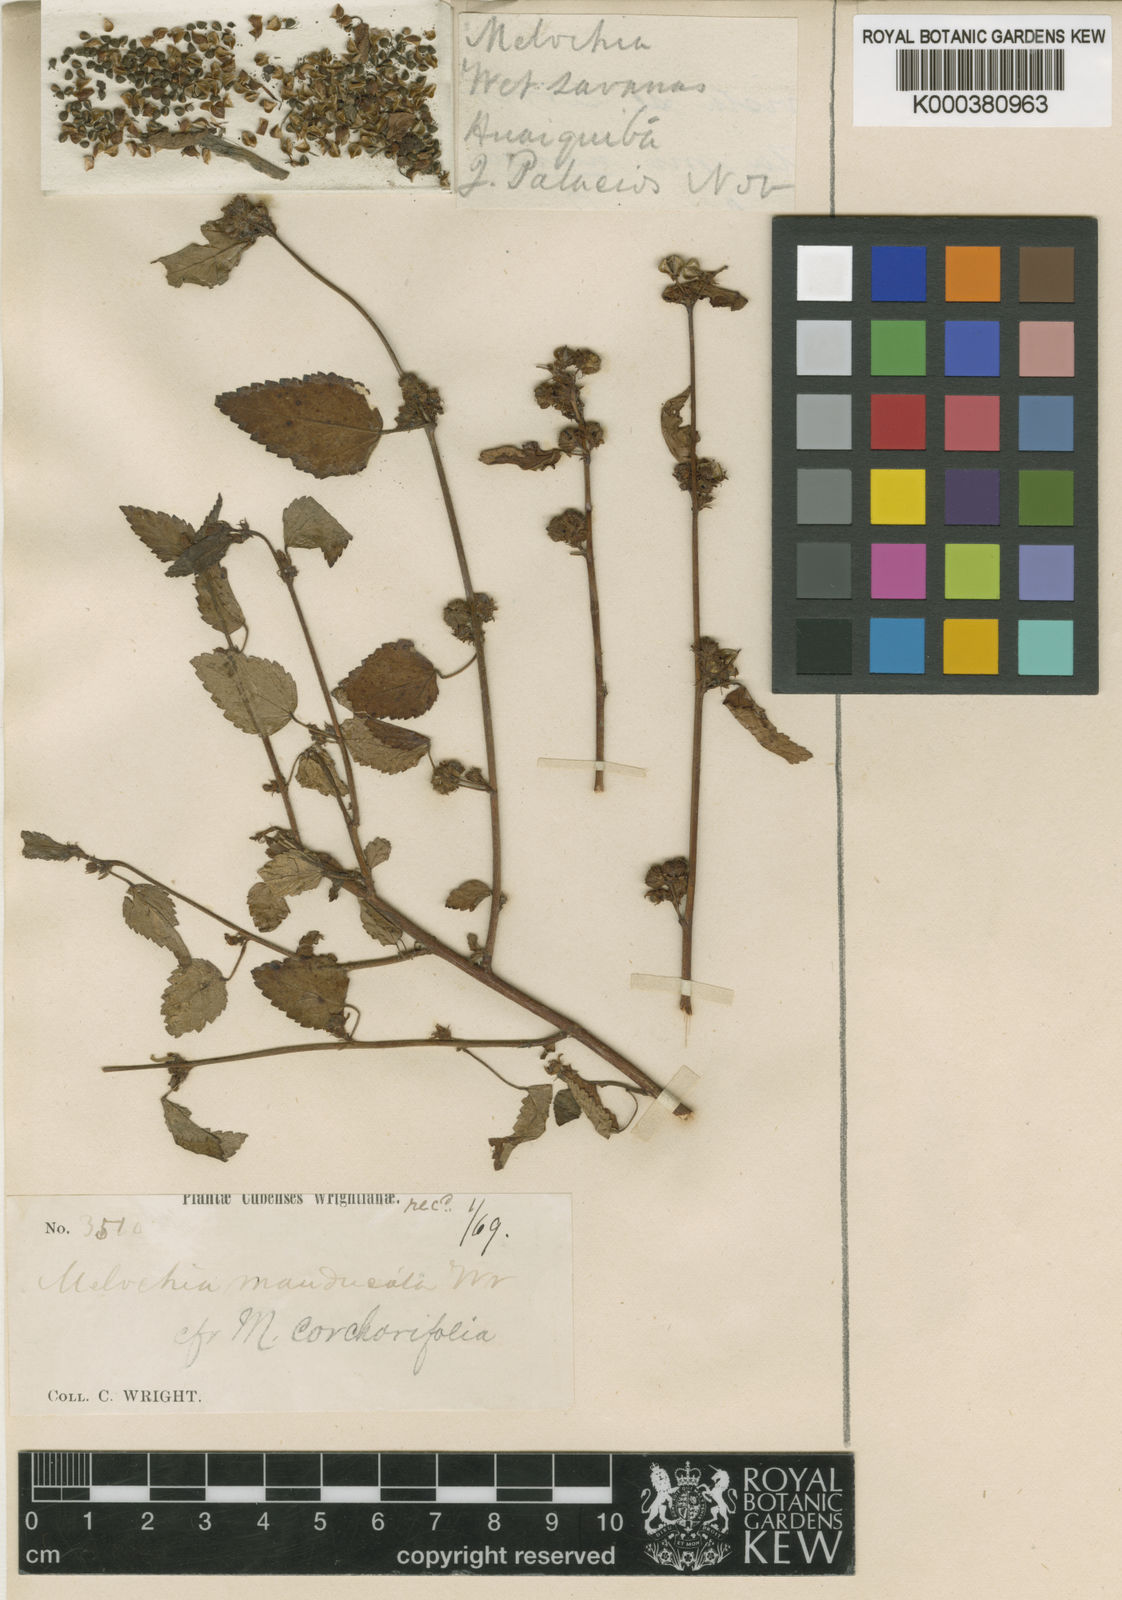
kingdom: Plantae
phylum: Tracheophyta
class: Magnoliopsida
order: Malvales
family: Malvaceae
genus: Melochia
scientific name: Melochia manducata
